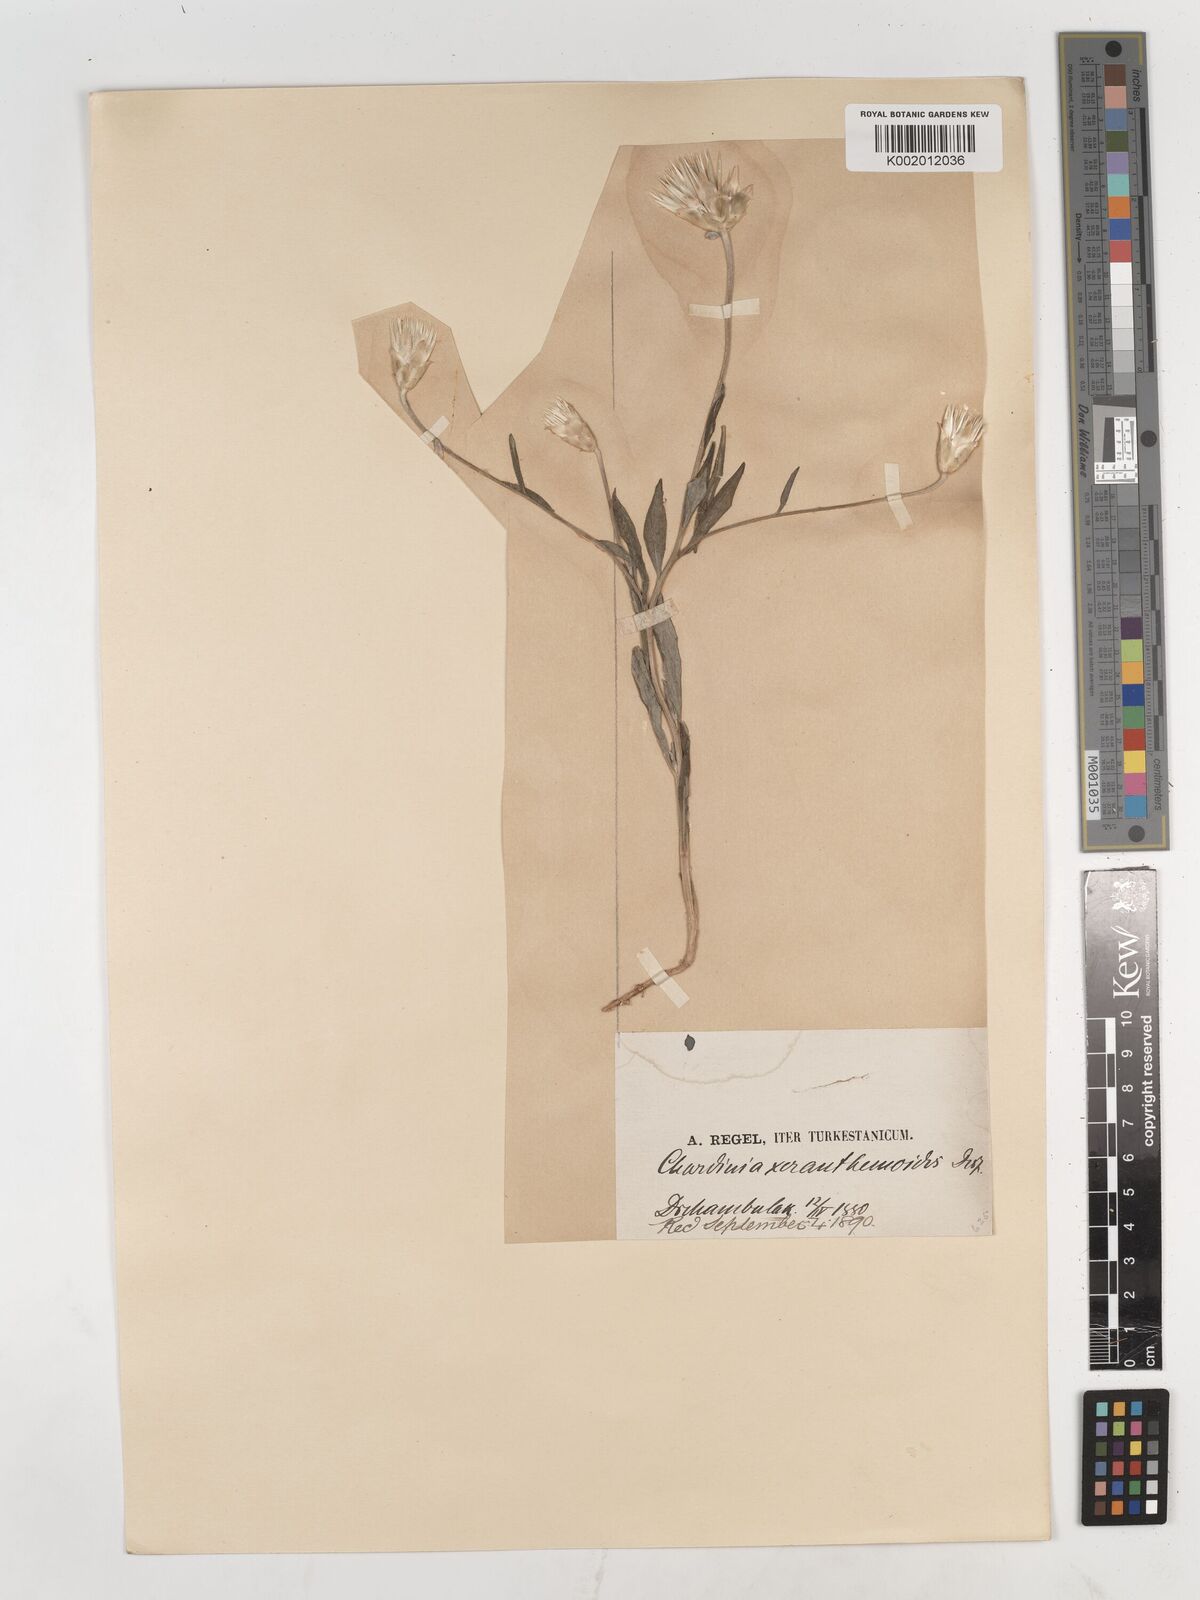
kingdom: Plantae
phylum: Tracheophyta
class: Magnoliopsida
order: Asterales
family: Asteraceae
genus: Chardinia
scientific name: Chardinia orientalis
